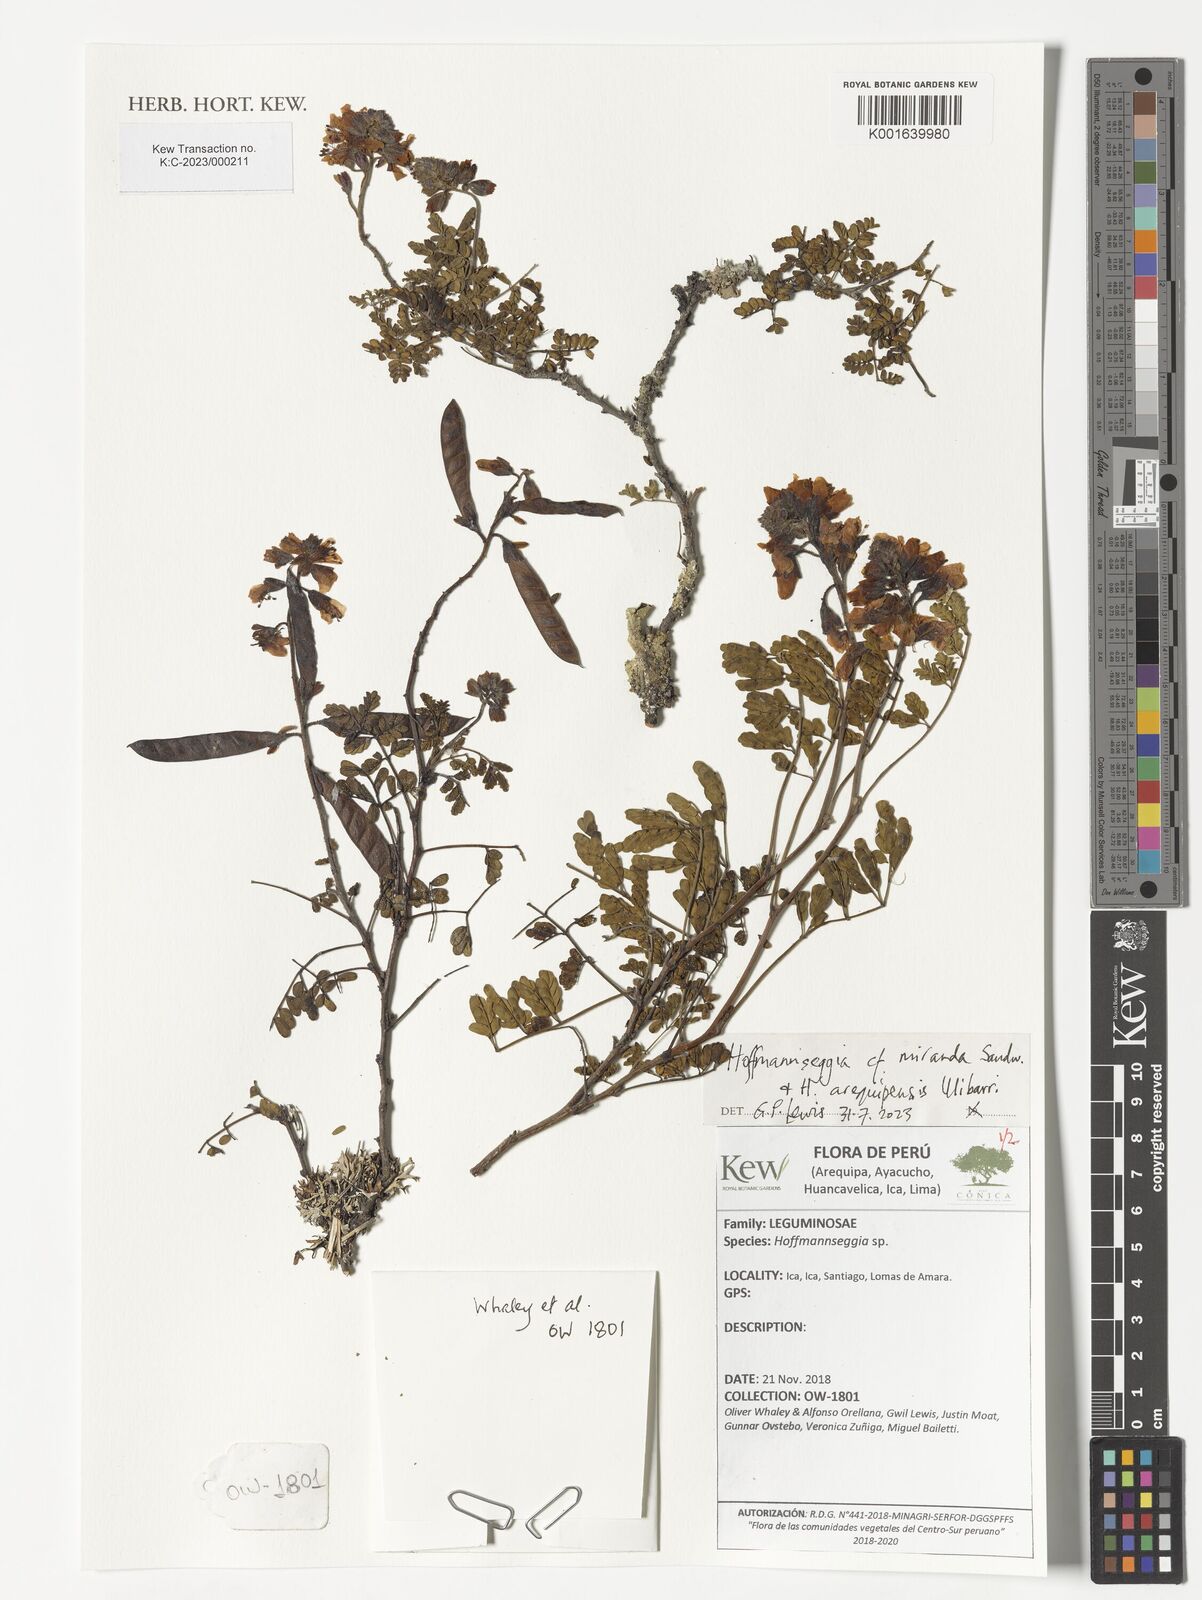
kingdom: Plantae
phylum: Tracheophyta
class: Magnoliopsida
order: Fabales
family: Fabaceae
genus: Hoffmannseggia
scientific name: Hoffmannseggia miranda
